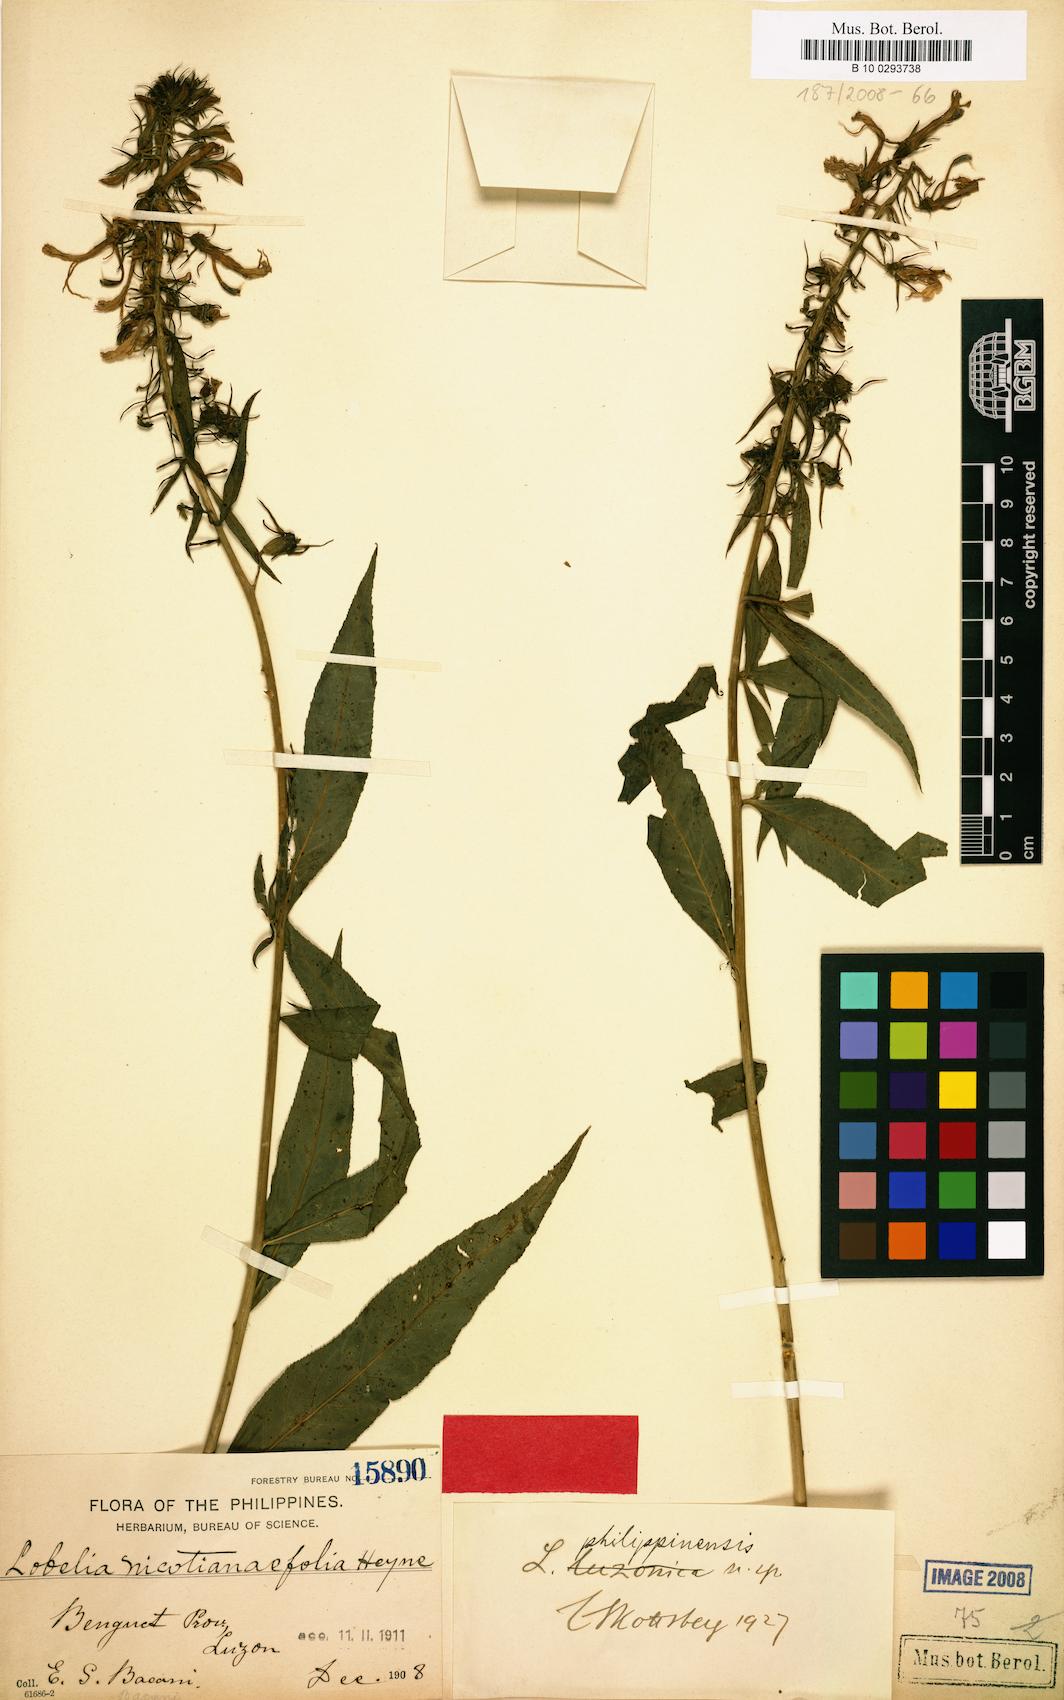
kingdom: Plantae
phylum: Tracheophyta
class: Magnoliopsida
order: Asterales
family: Campanulaceae
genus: Lobelia
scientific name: Lobelia philippinensis
